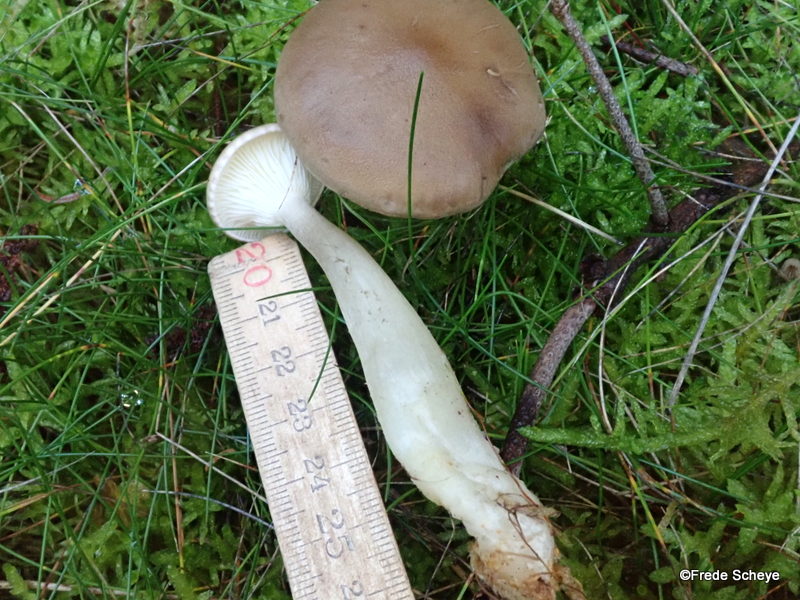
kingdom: Fungi
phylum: Basidiomycota
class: Agaricomycetes
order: Agaricales
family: Hygrophoraceae
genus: Ampulloclitocybe
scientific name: Ampulloclitocybe clavipes
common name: køllefod
